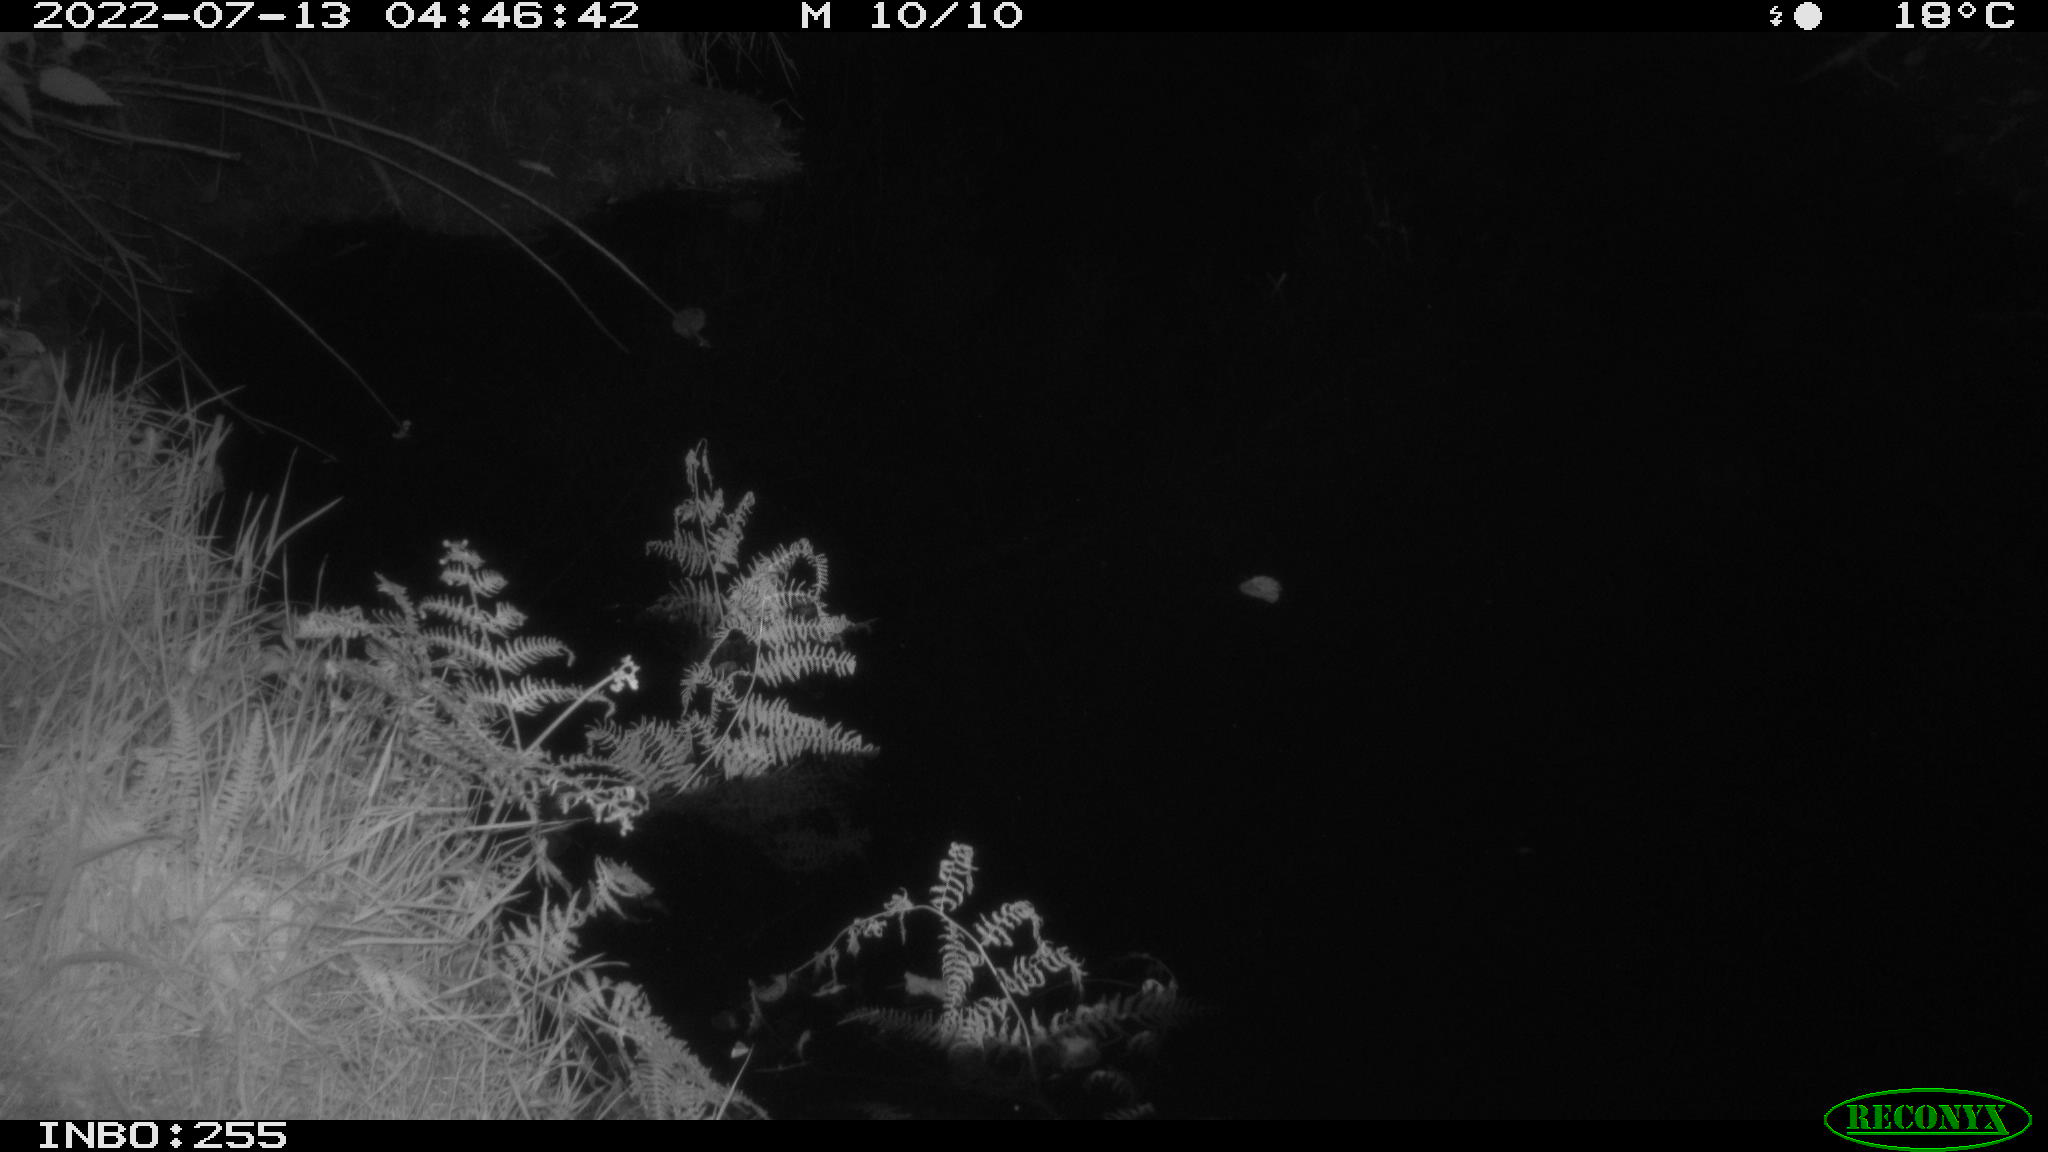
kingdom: Animalia
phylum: Chordata
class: Mammalia
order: Lagomorpha
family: Leporidae
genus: Lepus
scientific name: Lepus europaeus
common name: European hare
